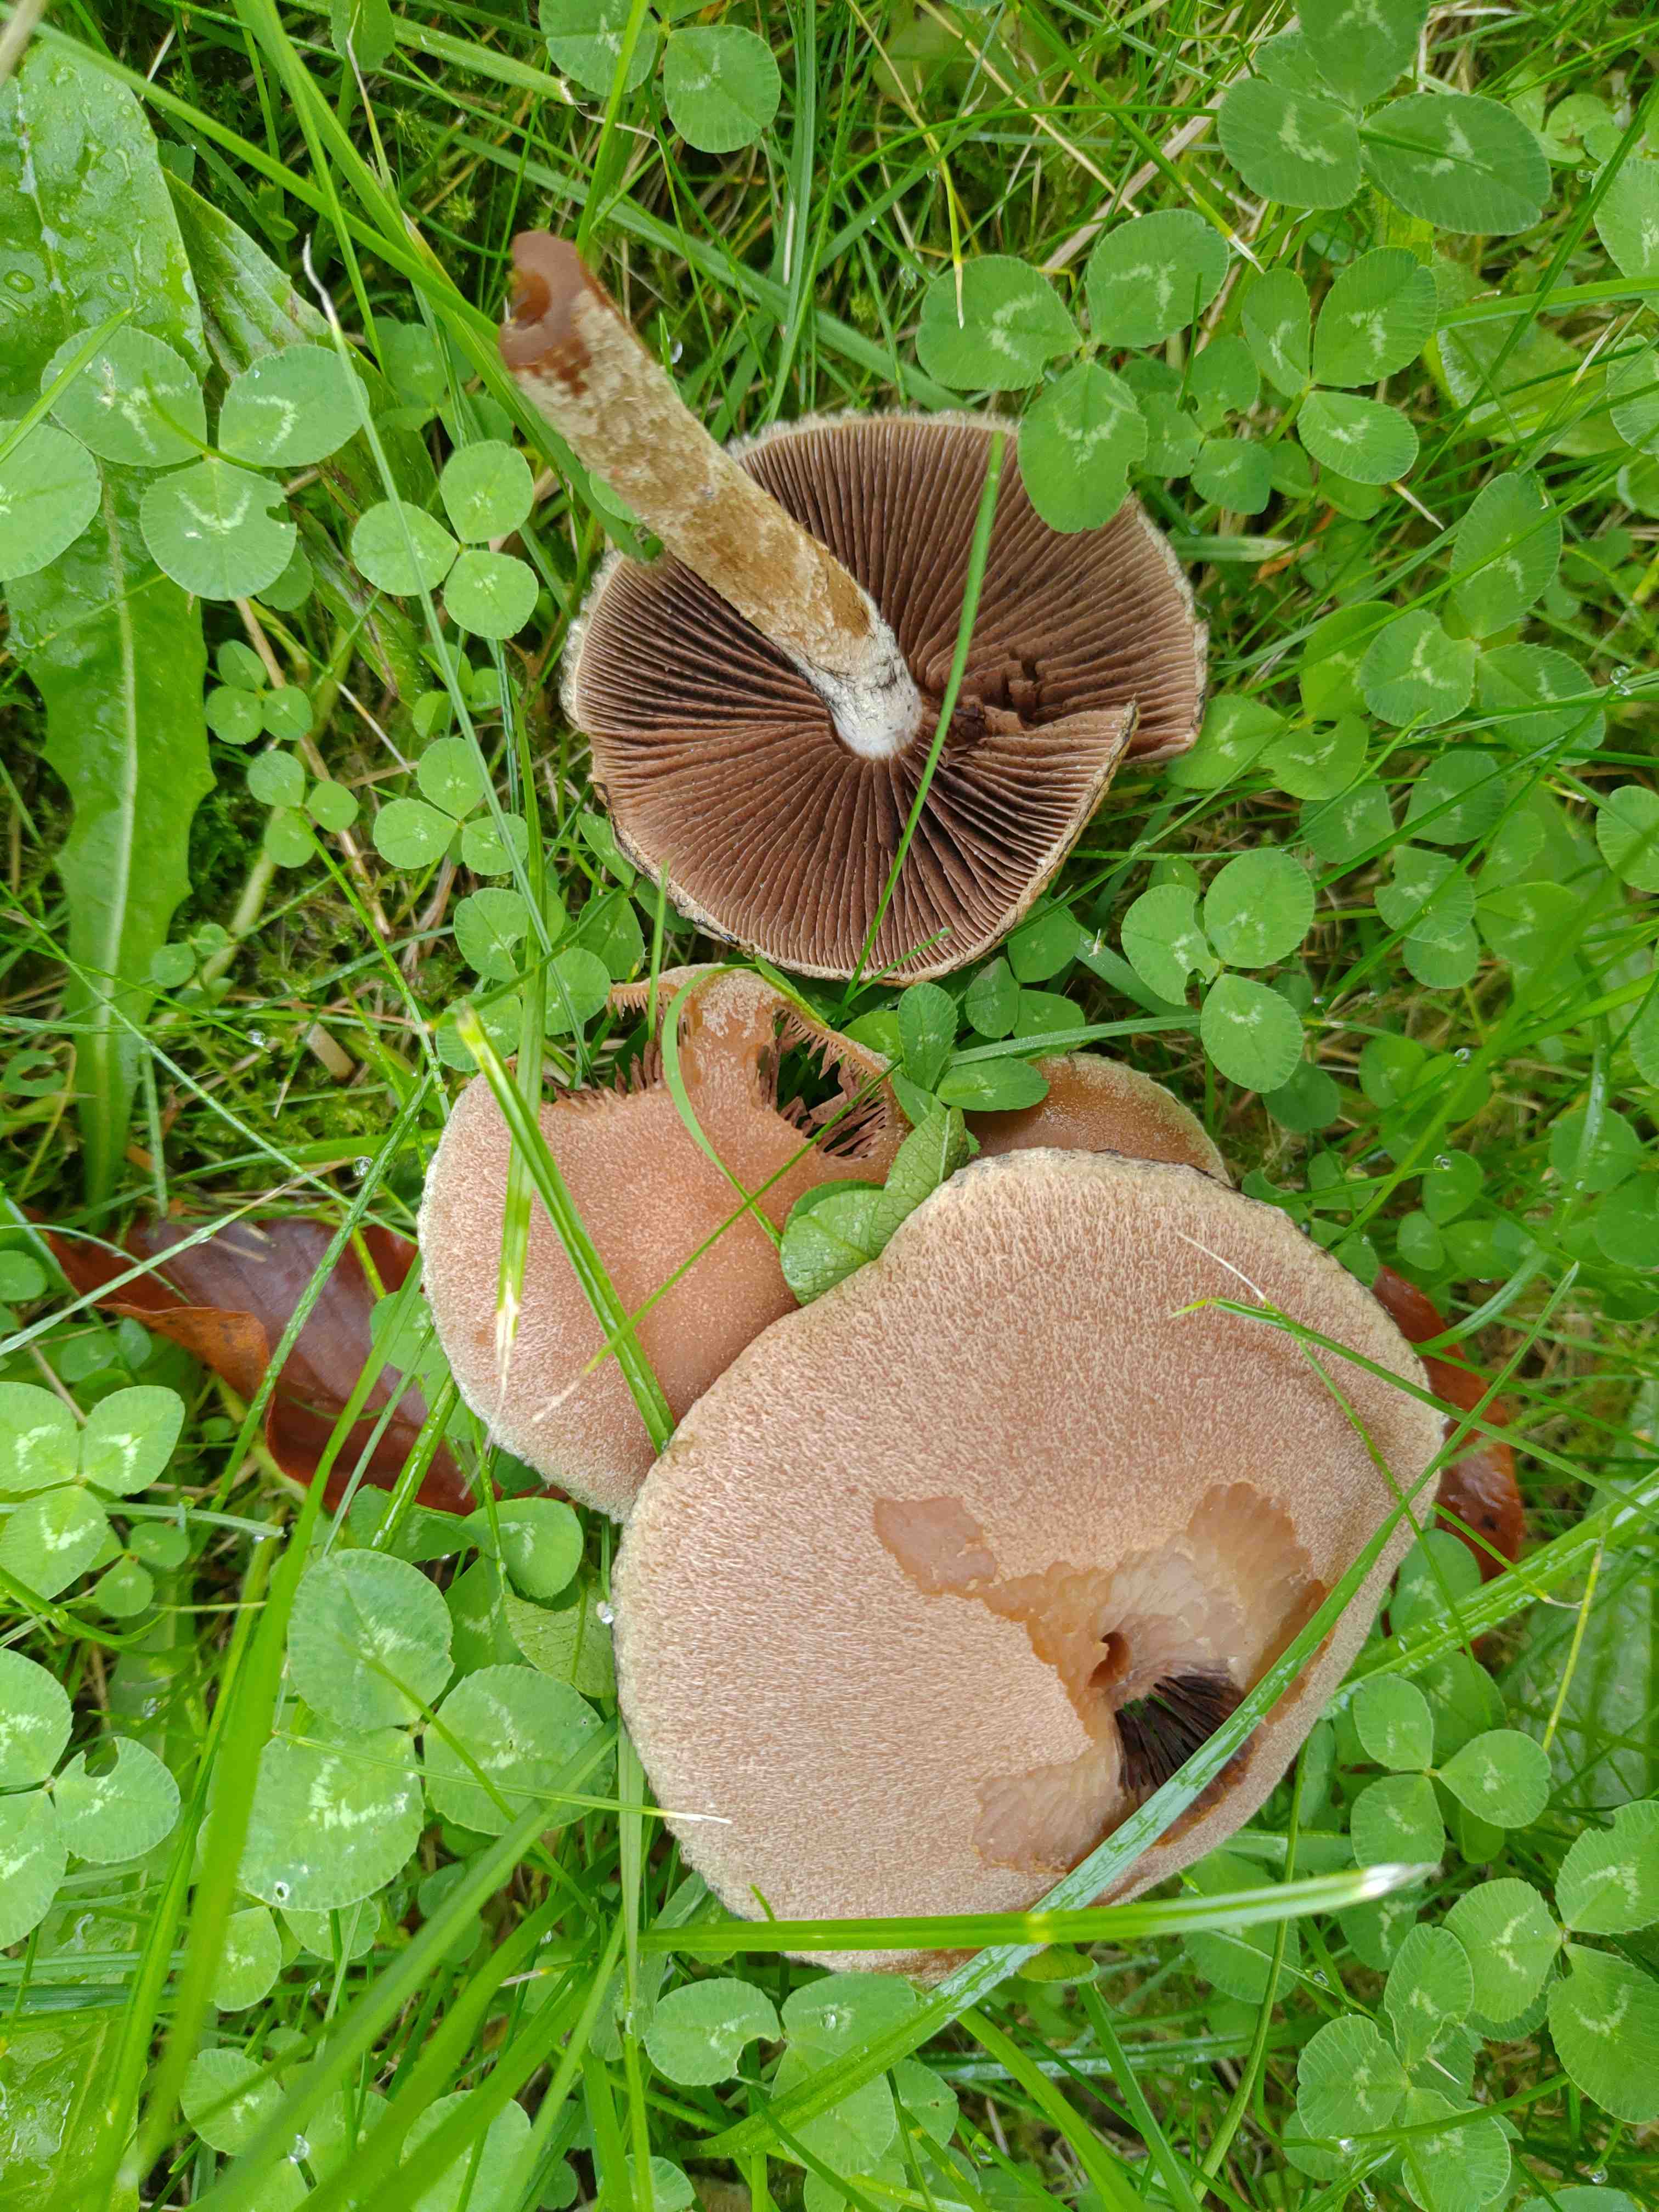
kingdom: Fungi
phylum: Basidiomycota
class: Agaricomycetes
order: Agaricales
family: Psathyrellaceae
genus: Lacrymaria
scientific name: Lacrymaria lacrymabunda
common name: grædende mørkhat
